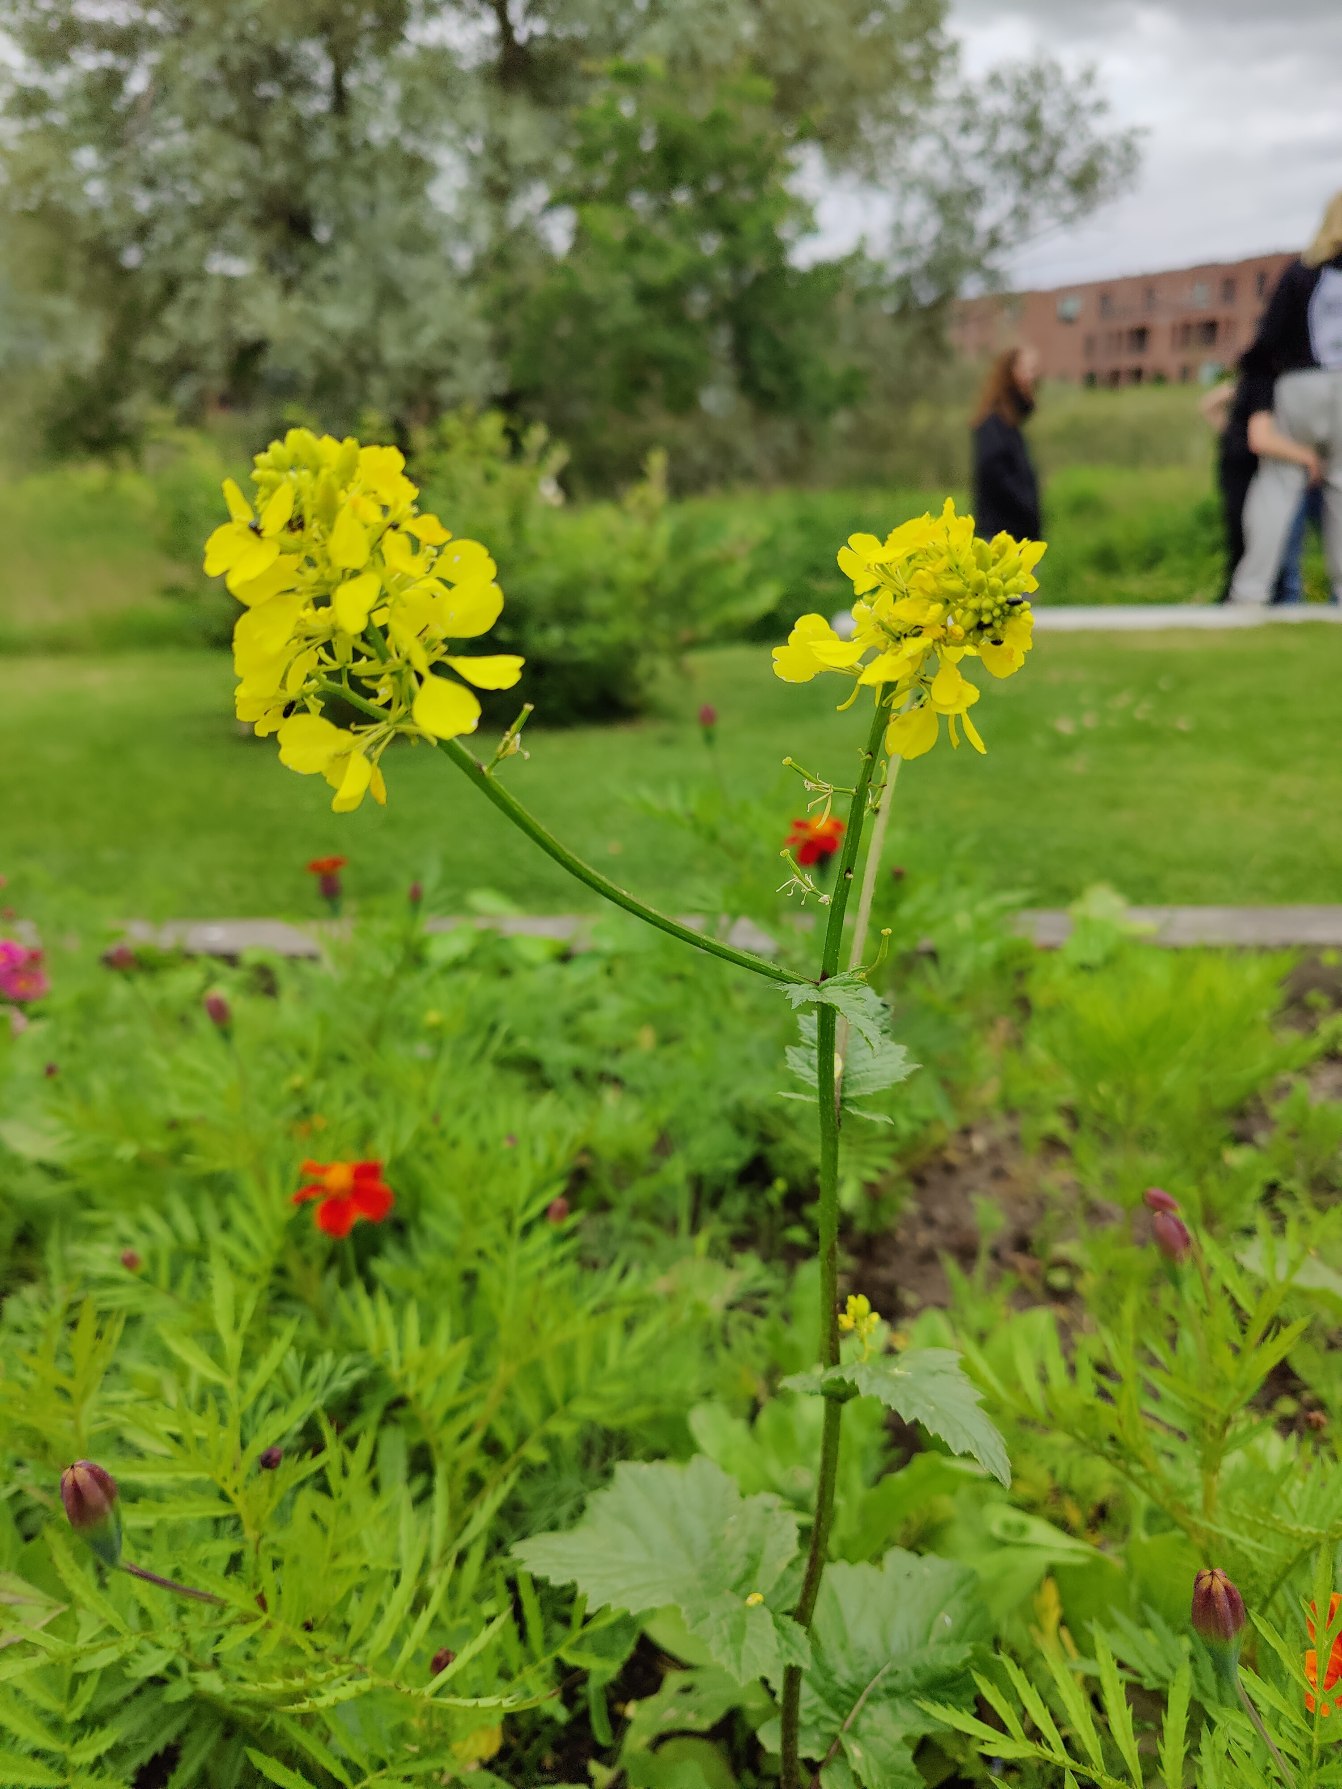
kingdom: Plantae
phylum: Tracheophyta
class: Magnoliopsida
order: Brassicales
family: Brassicaceae
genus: Sinapis
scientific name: Sinapis arvensis
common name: Ager-sennep
